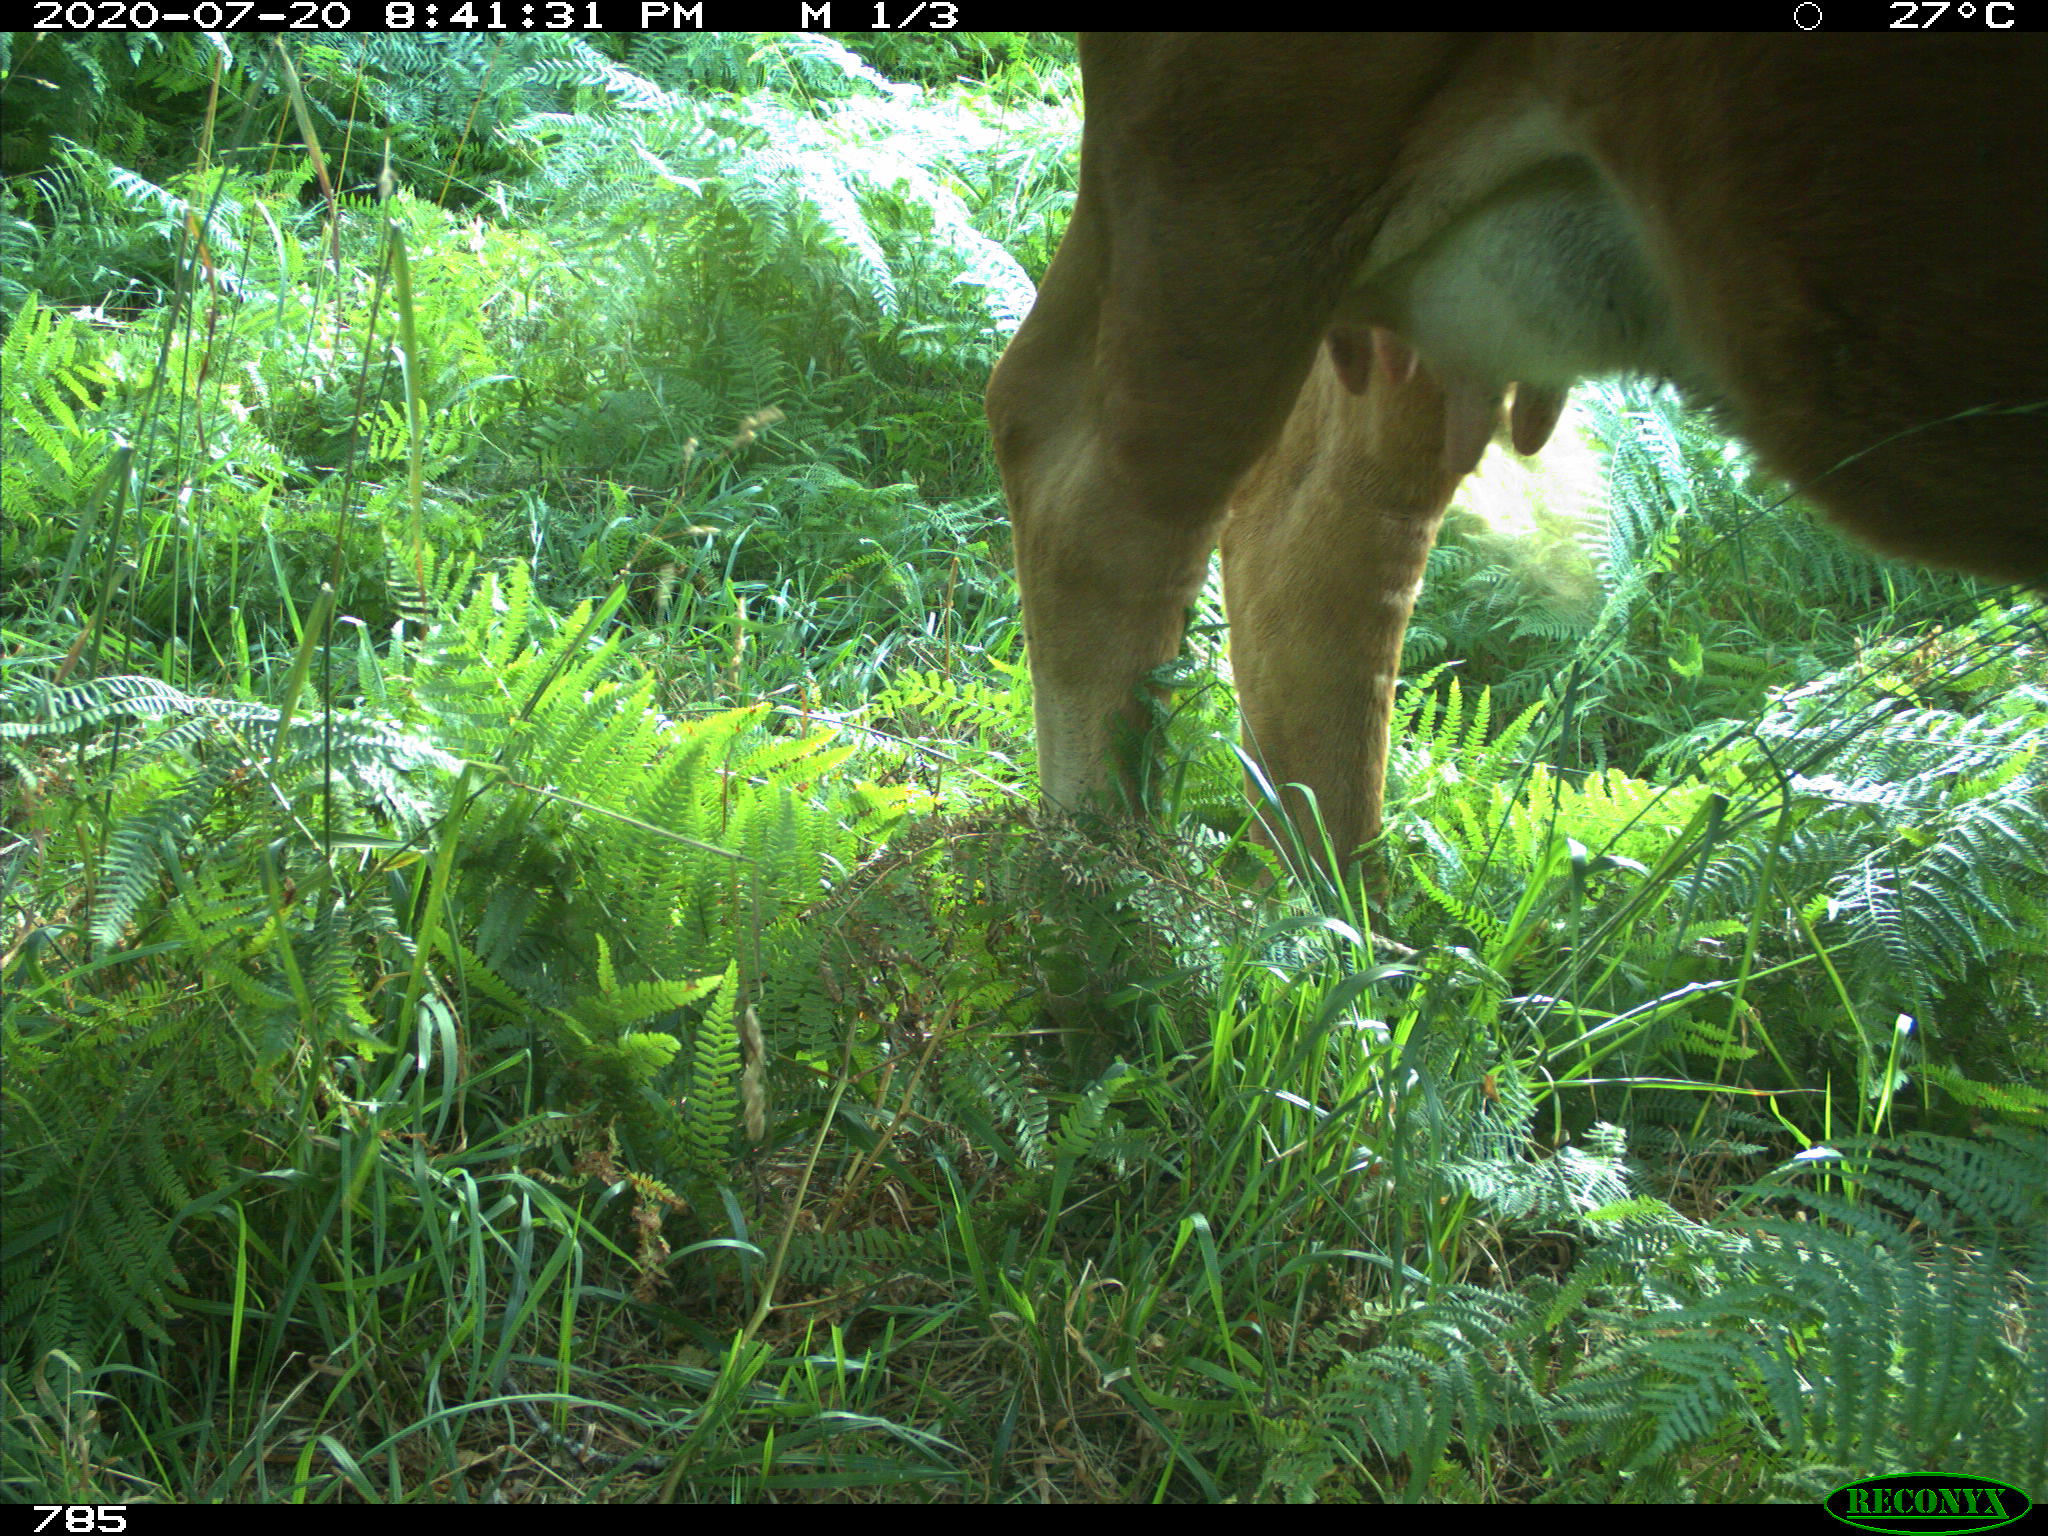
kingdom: Animalia
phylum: Chordata
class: Mammalia
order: Artiodactyla
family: Bovidae
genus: Bos
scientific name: Bos taurus
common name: Domesticated cattle
